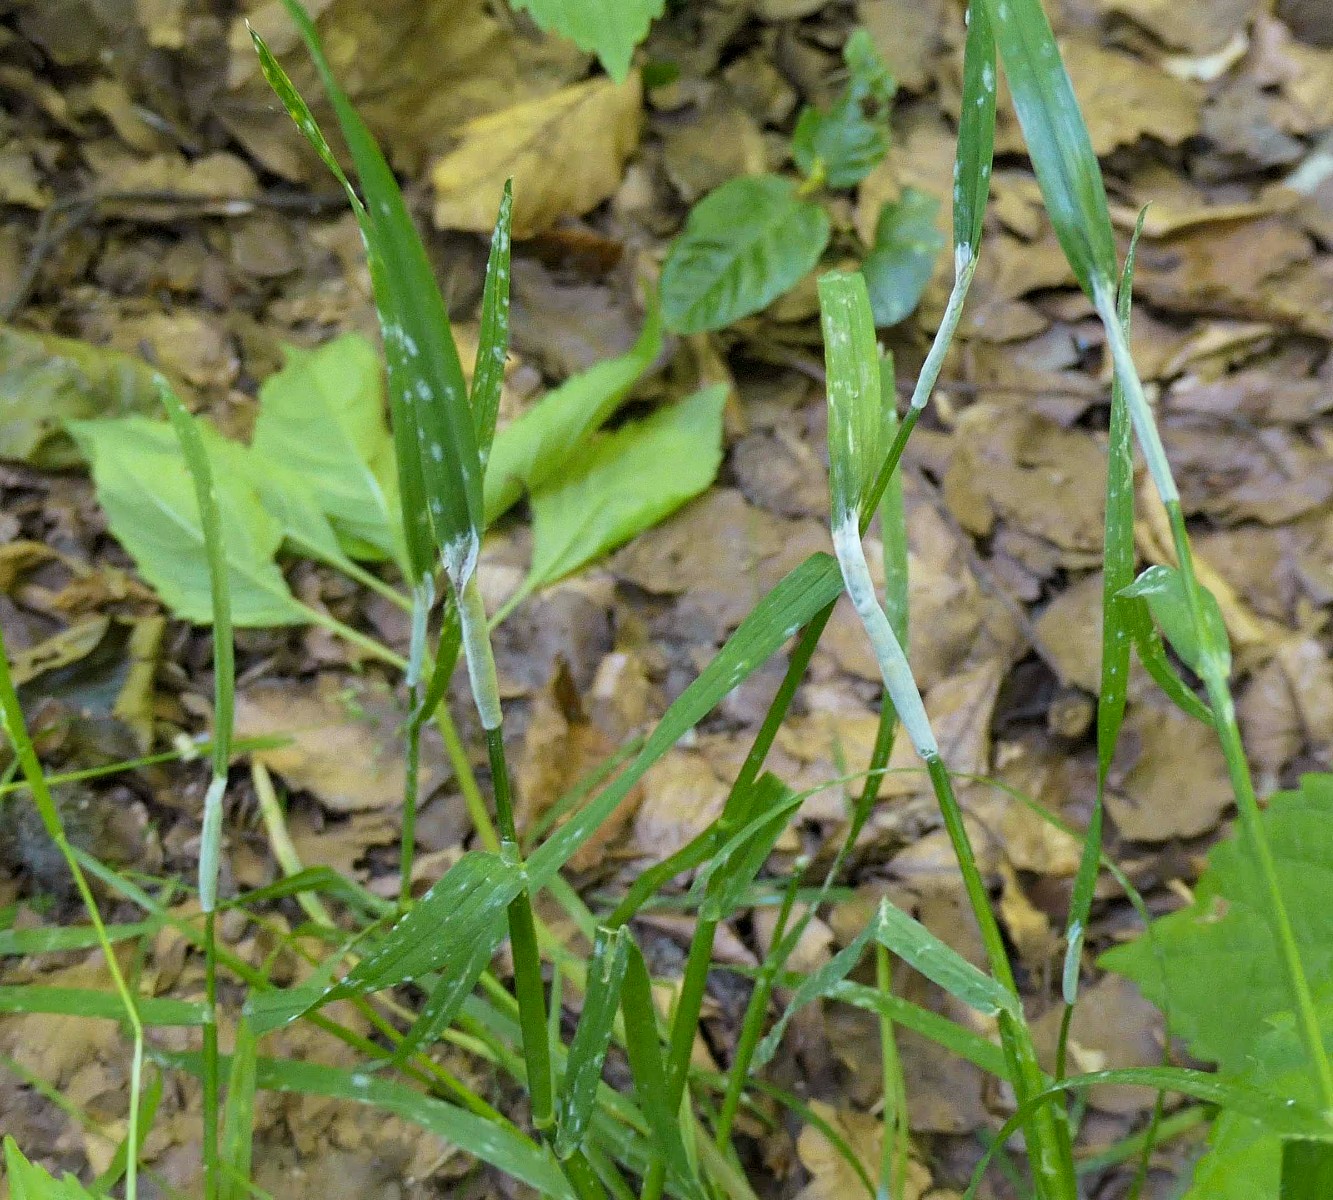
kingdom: Fungi
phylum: Ascomycota
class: Sordariomycetes
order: Hypocreales
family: Clavicipitaceae
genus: Epichloe
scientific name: Epichloe typhina
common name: almindelig kernerør
